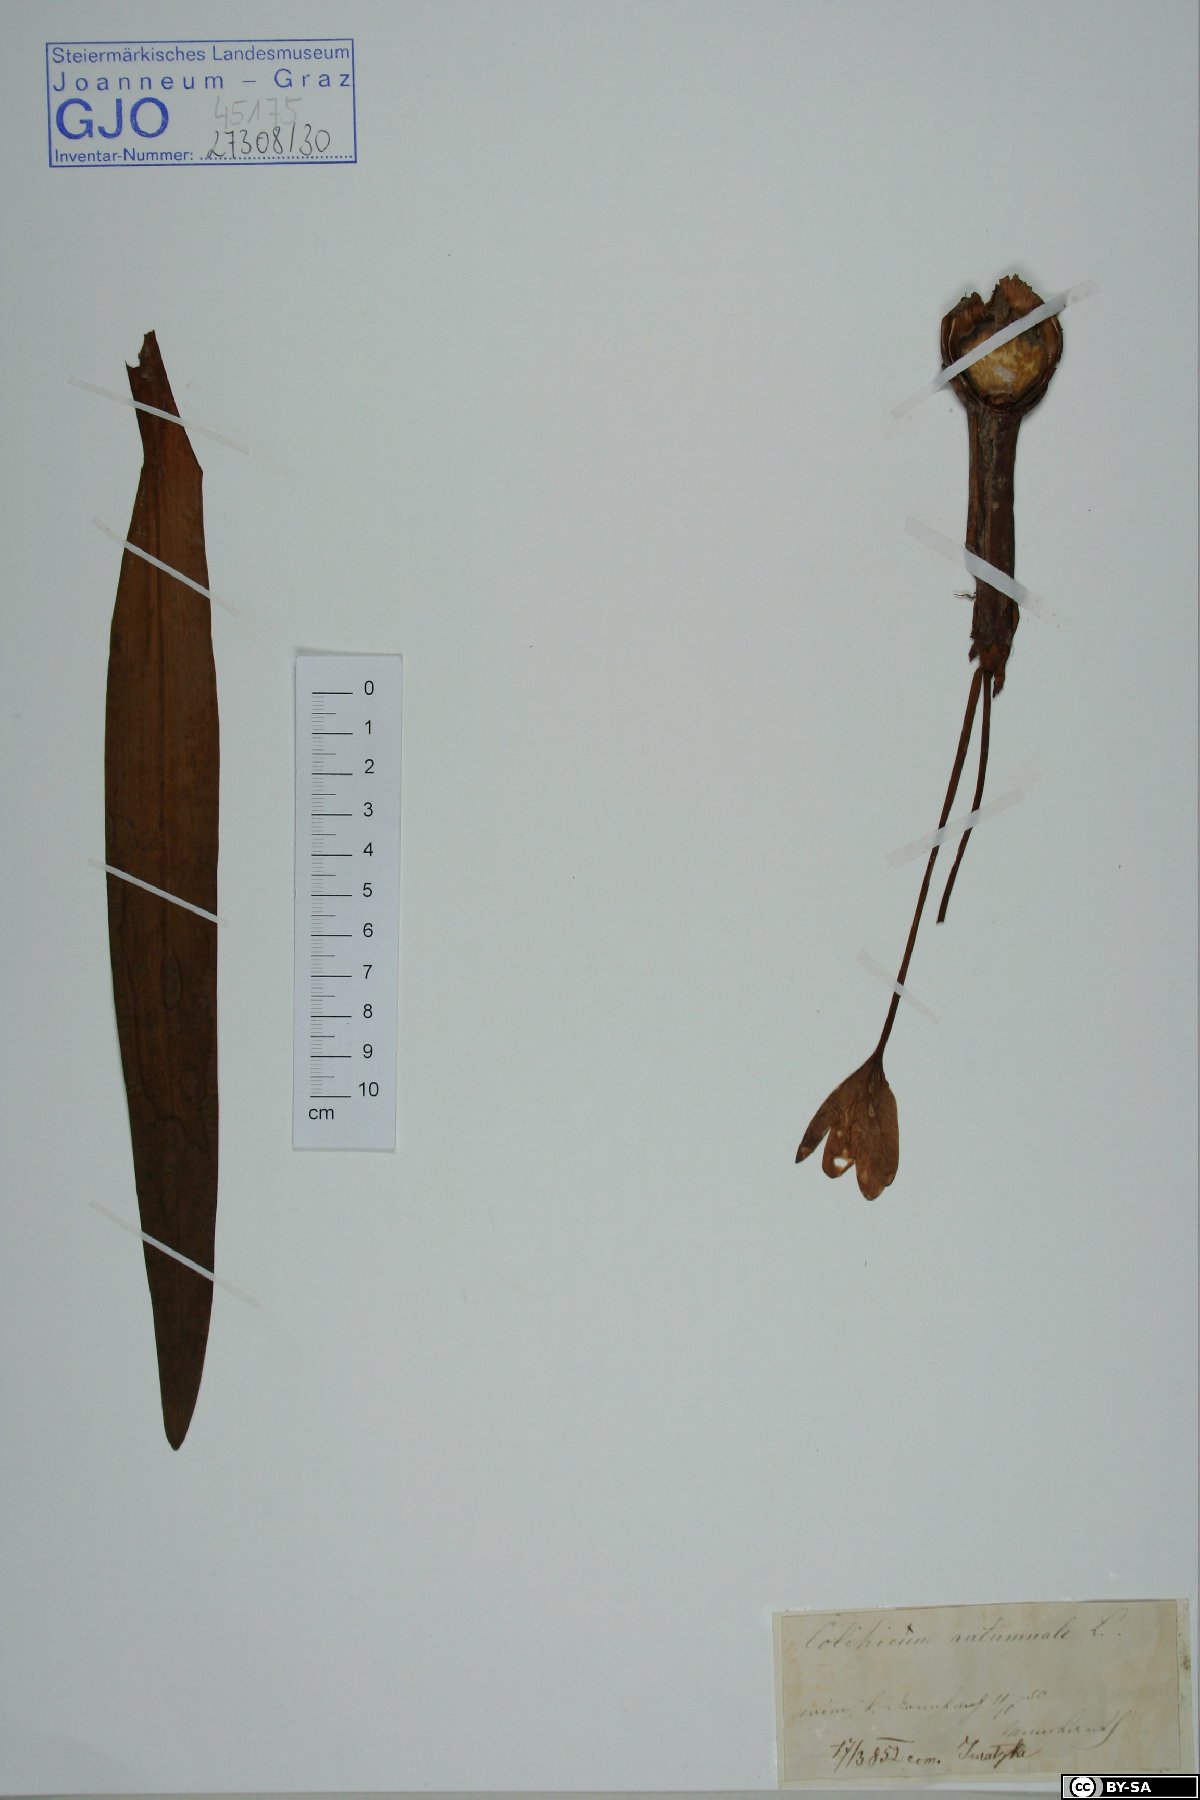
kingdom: Plantae
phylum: Tracheophyta
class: Liliopsida
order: Liliales
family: Colchicaceae
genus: Colchicum
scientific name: Colchicum autumnale
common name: Autumn crocus
